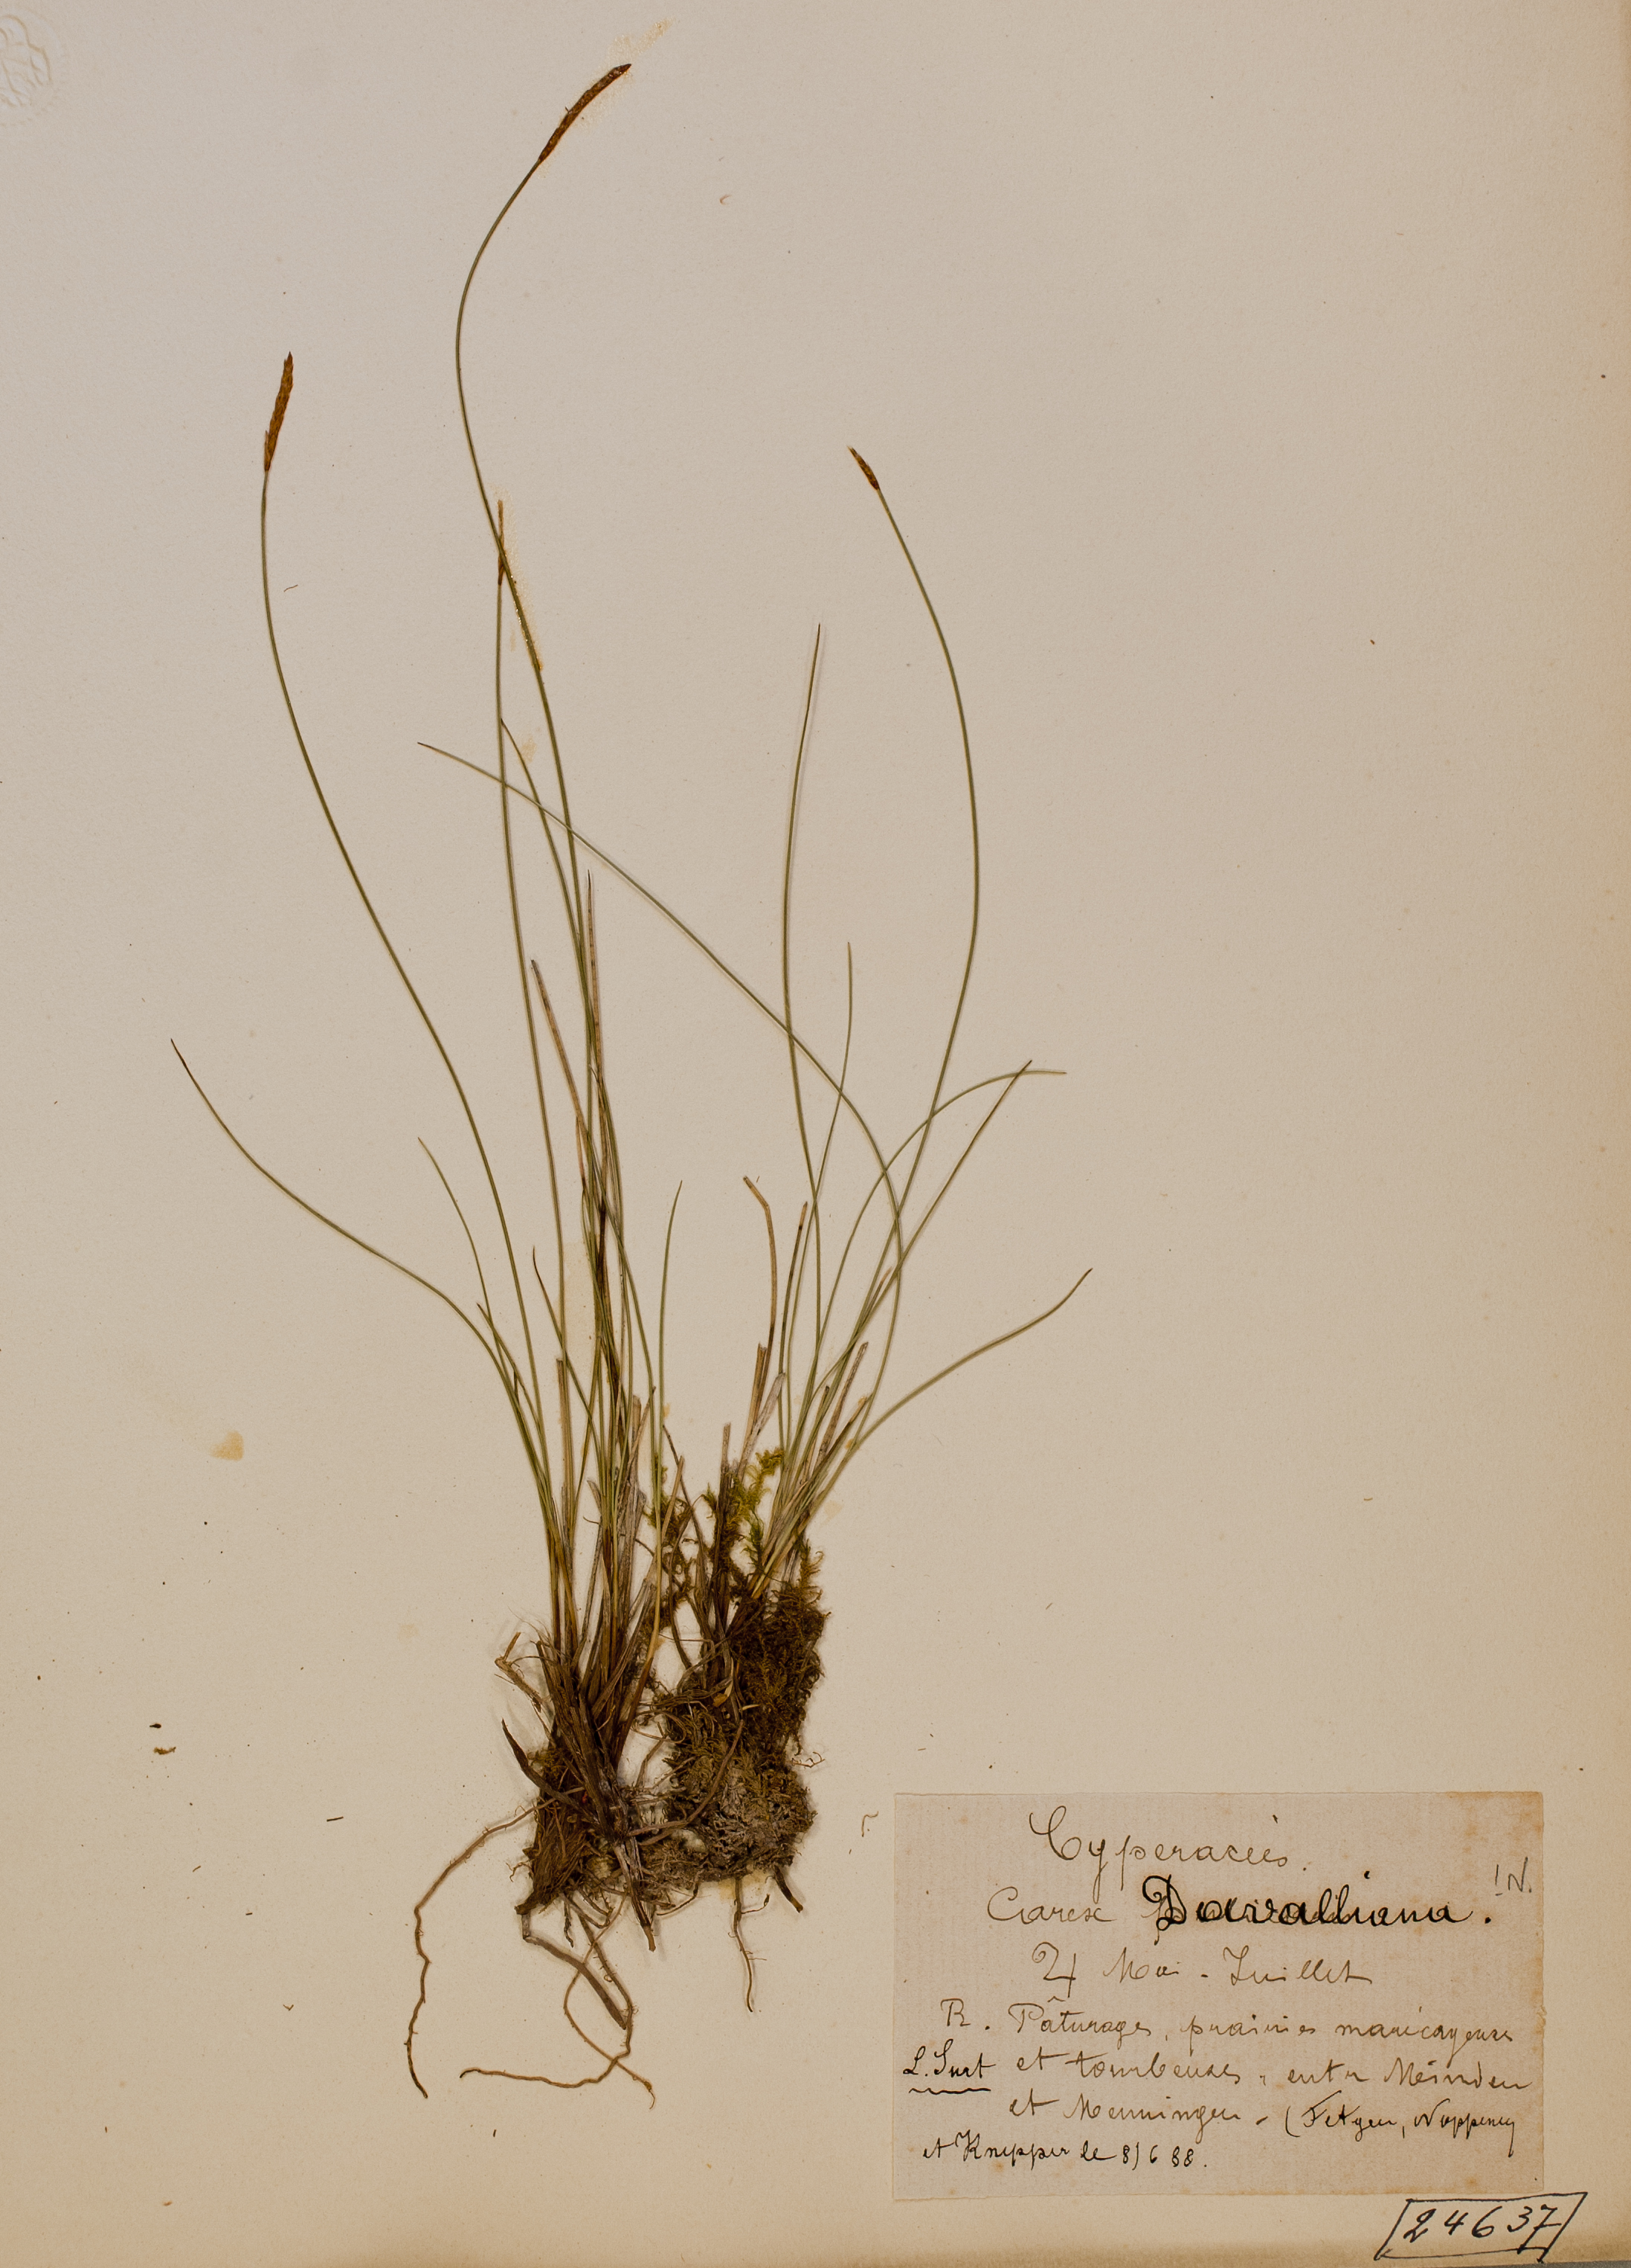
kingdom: Plantae
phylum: Tracheophyta
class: Liliopsida
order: Poales
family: Cyperaceae
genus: Carex
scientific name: Carex davalliana
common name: Davall's sedge
